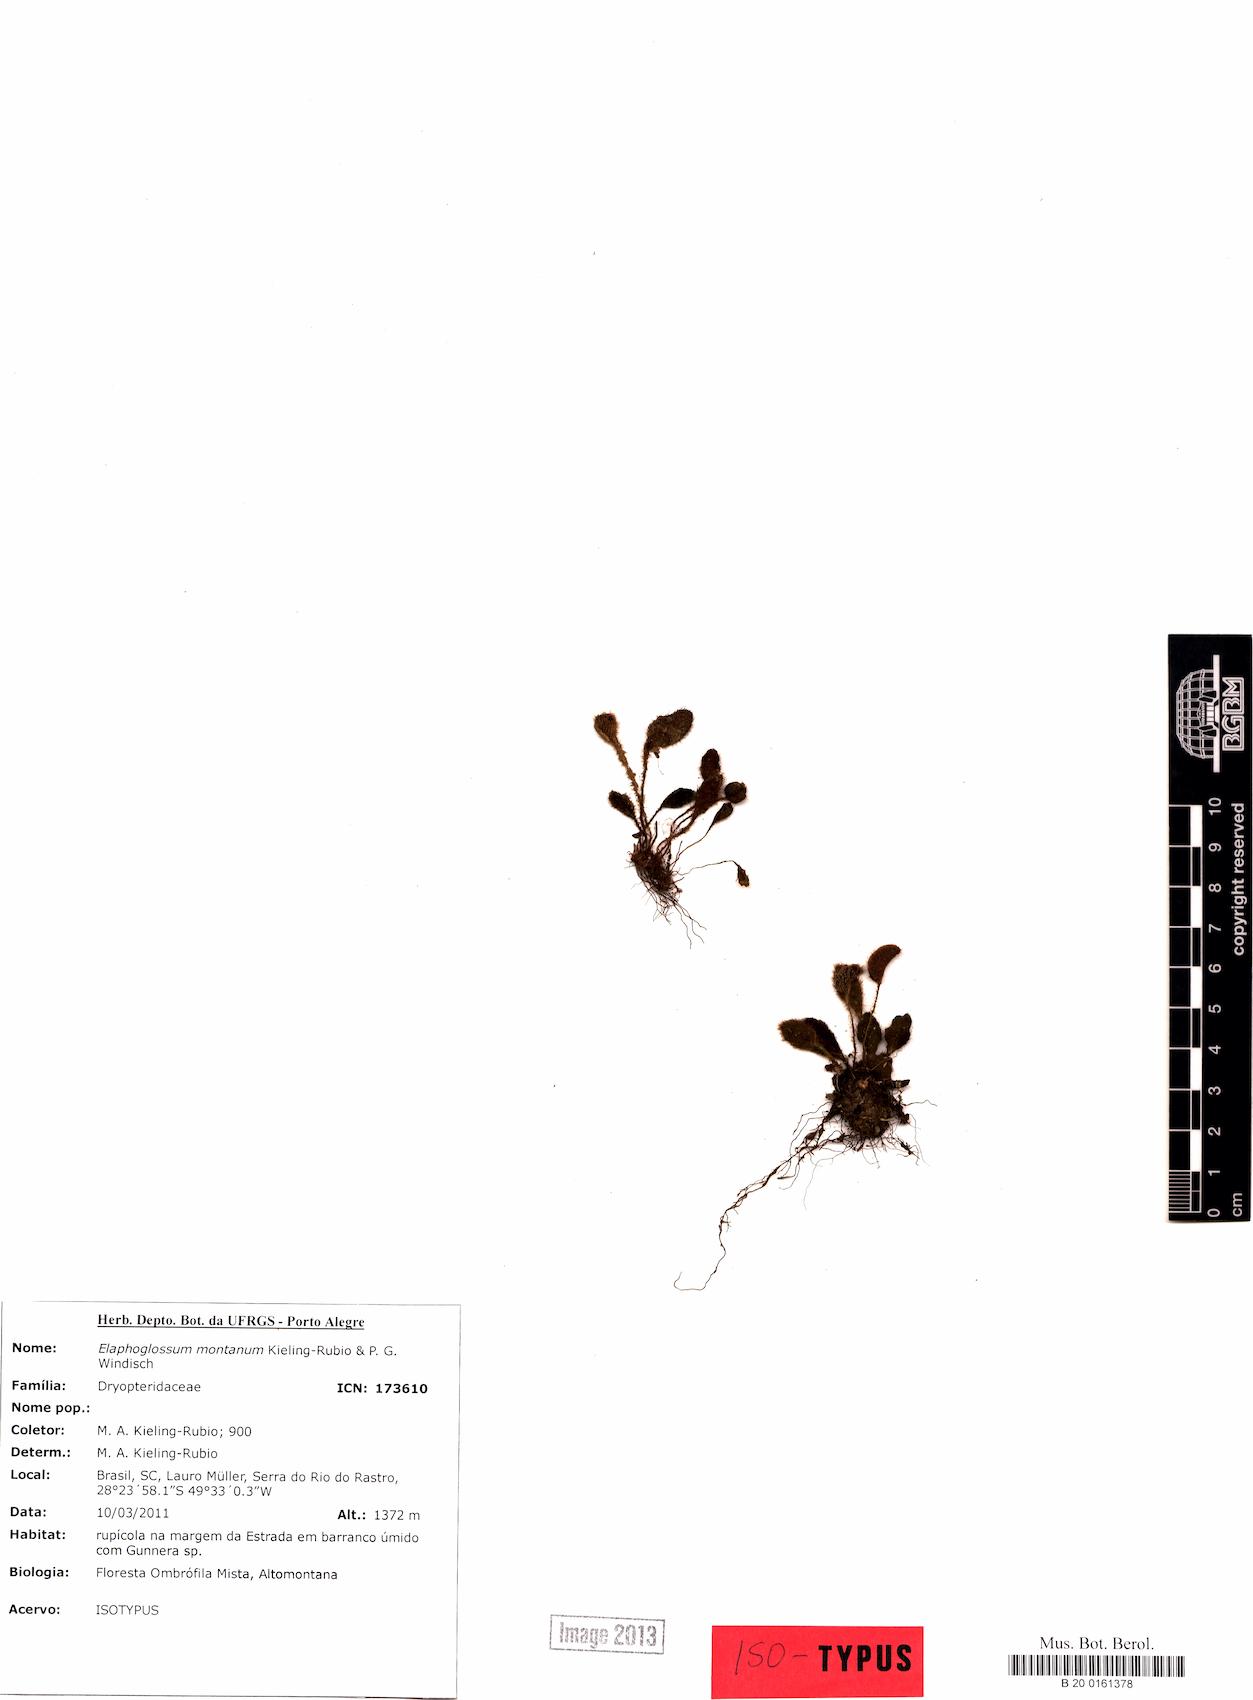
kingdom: Plantae
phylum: Tracheophyta
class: Polypodiopsida
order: Polypodiales
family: Dryopteridaceae
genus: Elaphoglossum
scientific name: Elaphoglossum montanum
